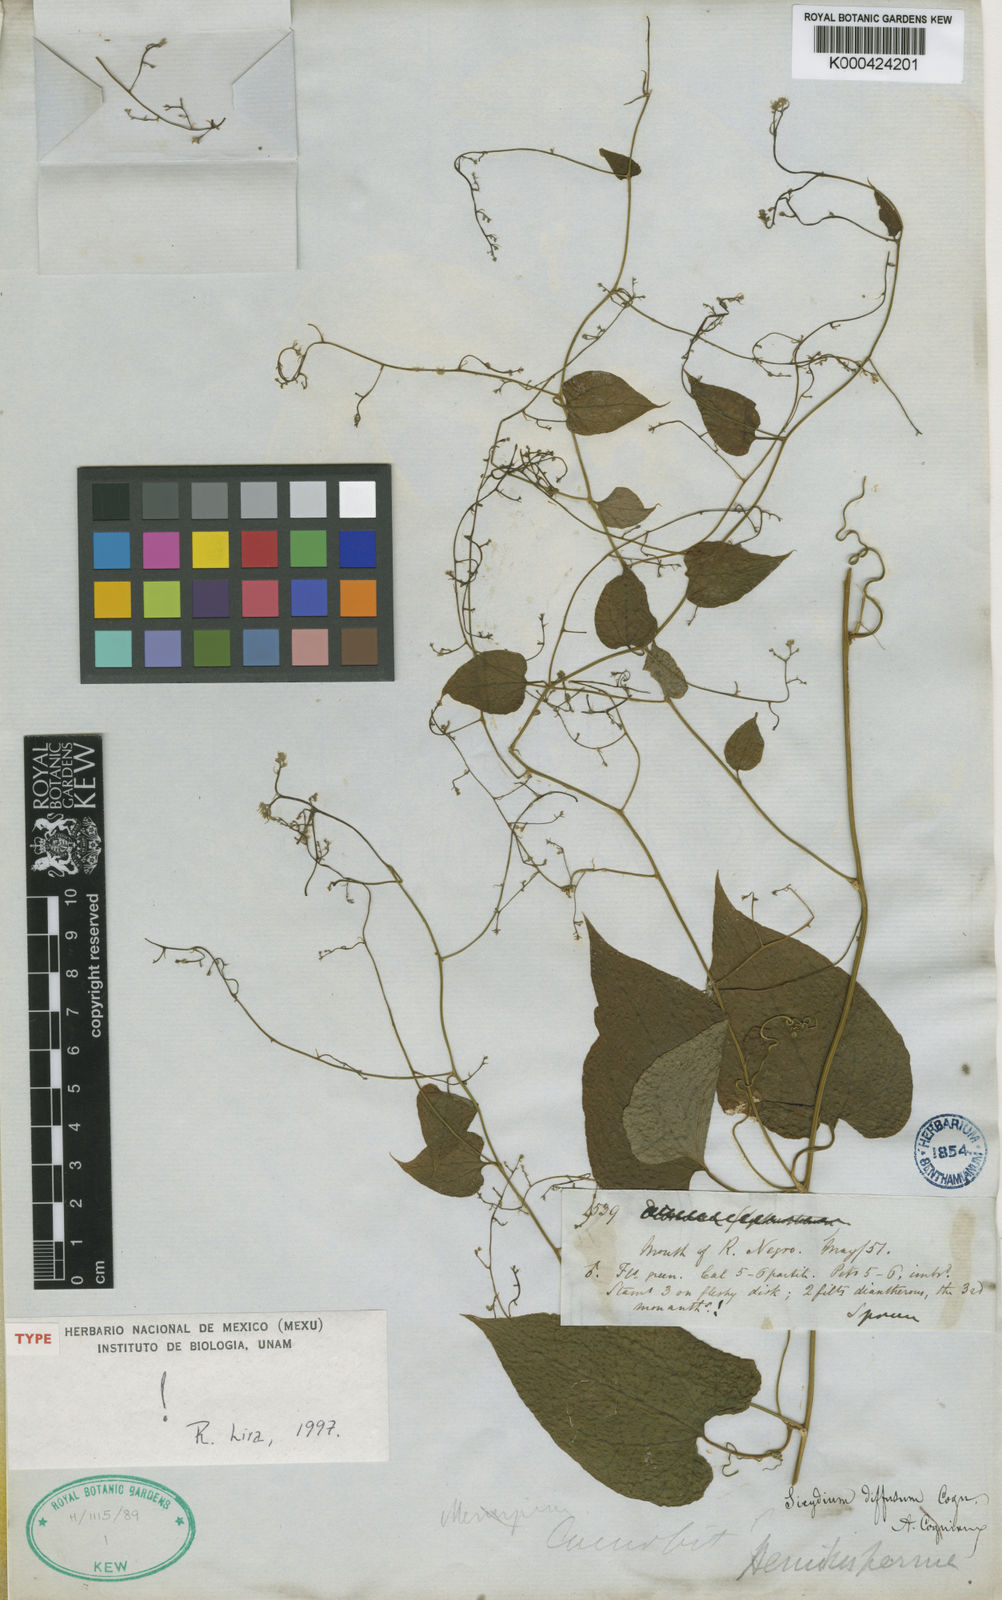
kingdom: Plantae
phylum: Tracheophyta
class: Magnoliopsida
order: Cucurbitales
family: Cucurbitaceae
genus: Sicydium
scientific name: Sicydium diffusum
